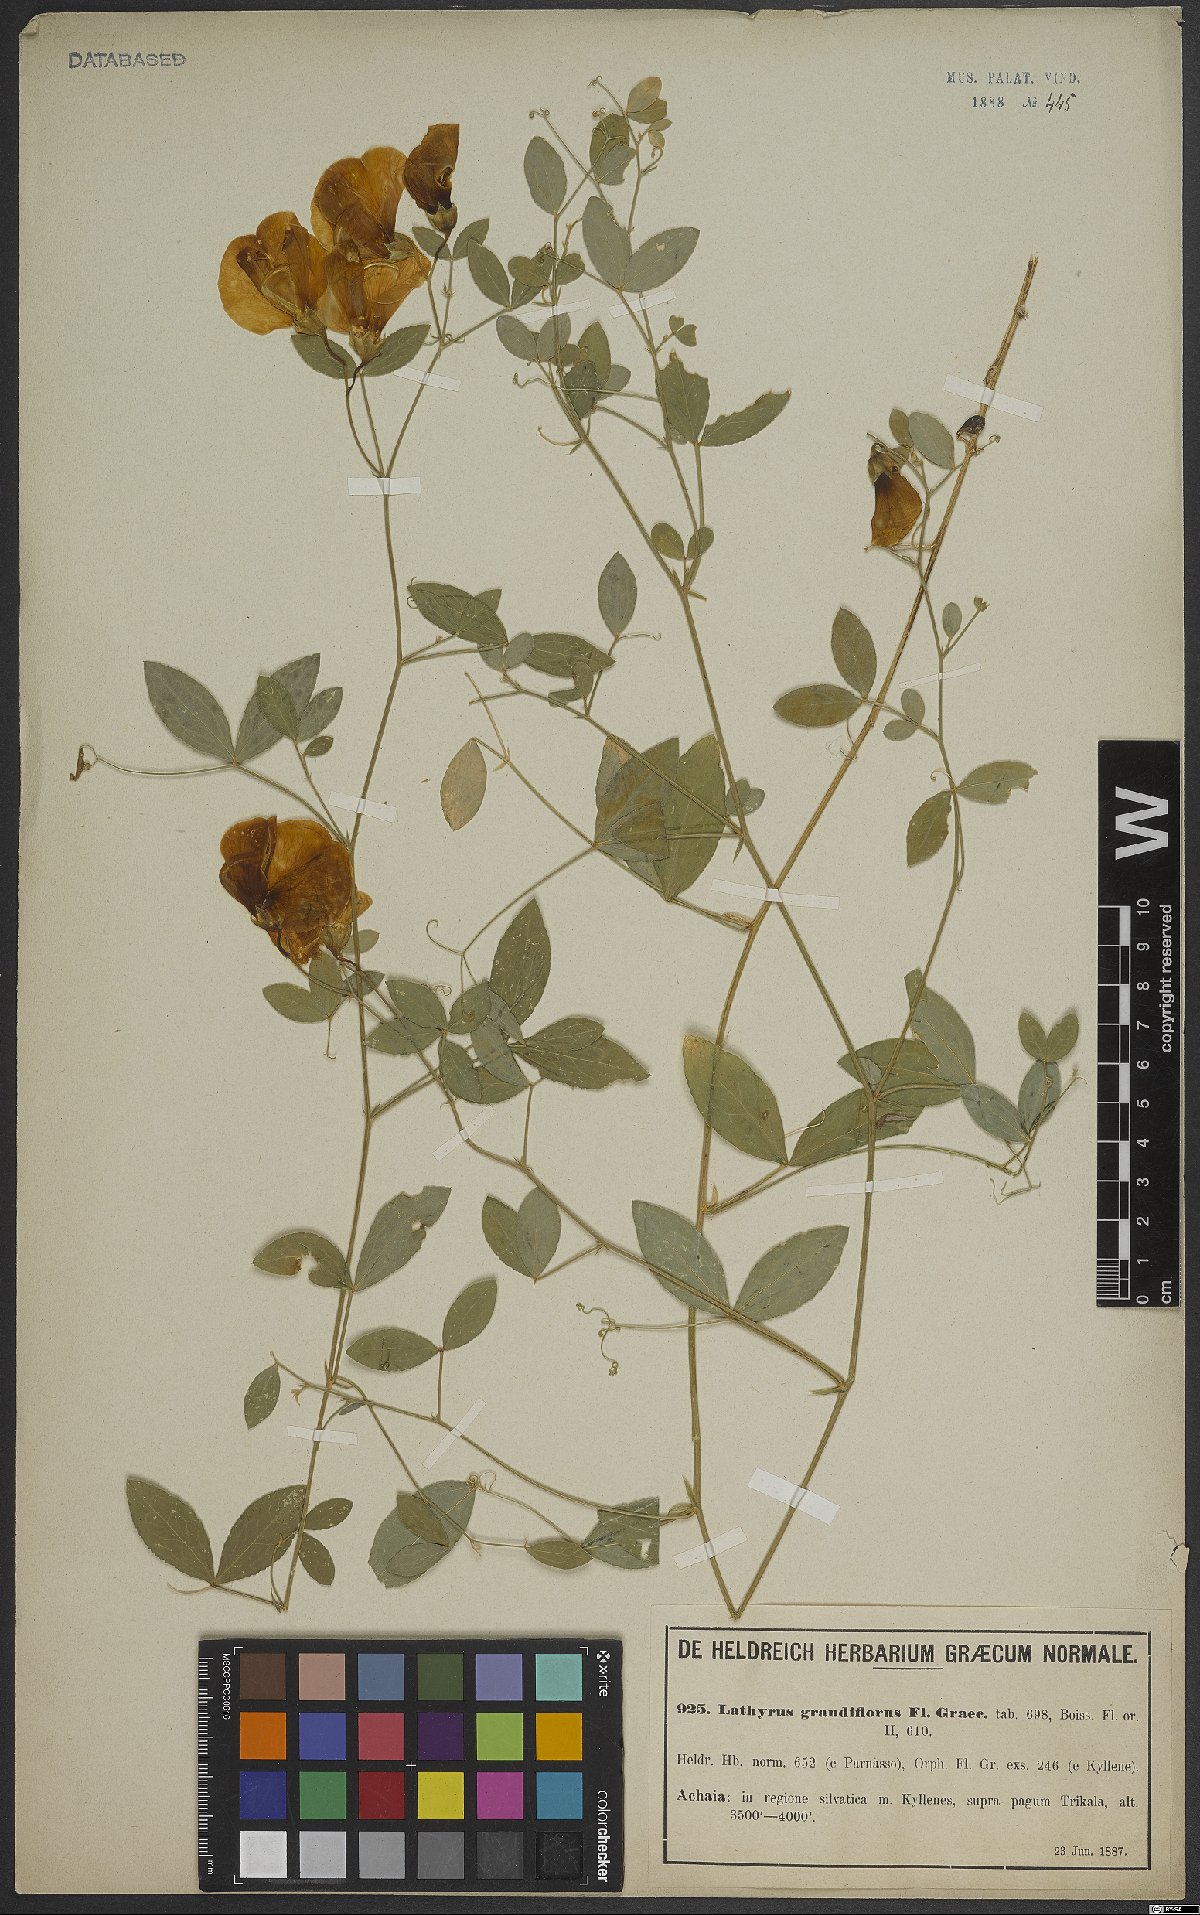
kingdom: Plantae
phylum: Tracheophyta
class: Magnoliopsida
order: Fabales
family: Fabaceae
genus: Lathyrus
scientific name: Lathyrus grandiflorus
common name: Two-flowered everlasting-pea
